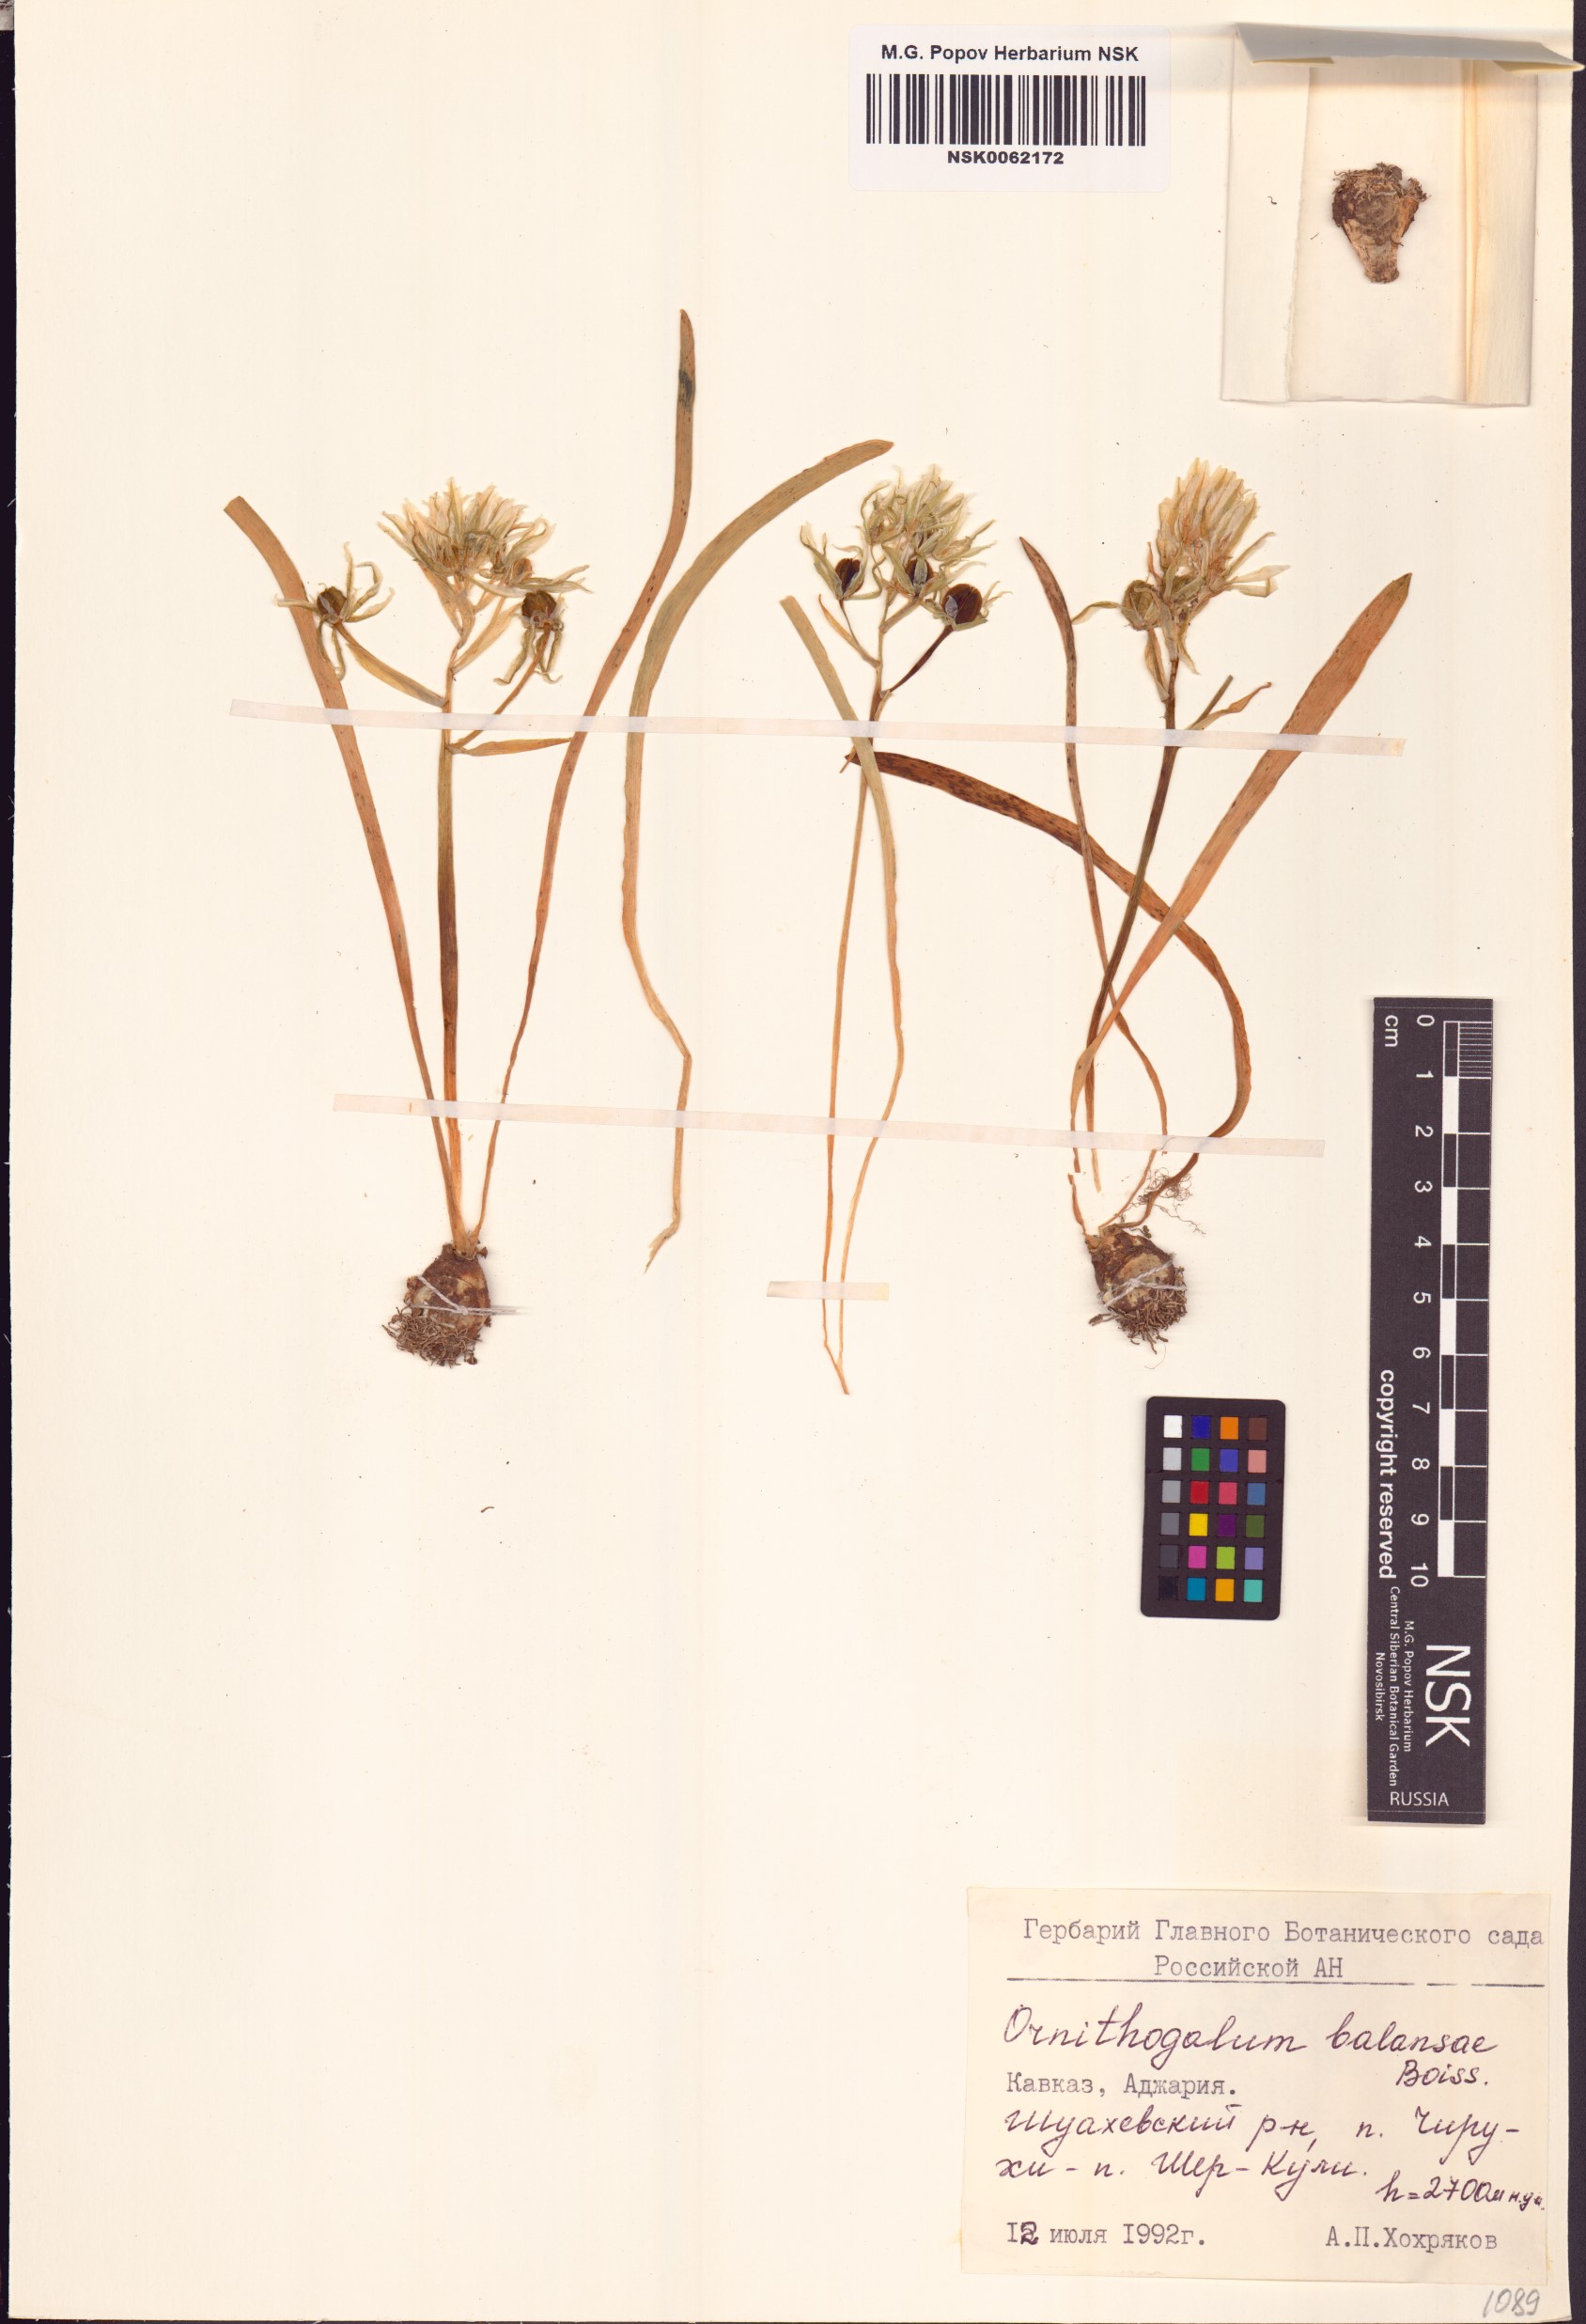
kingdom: Plantae
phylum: Tracheophyta
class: Liliopsida
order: Asparagales
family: Asparagaceae
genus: Ornithogalum
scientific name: Ornithogalum balansae
